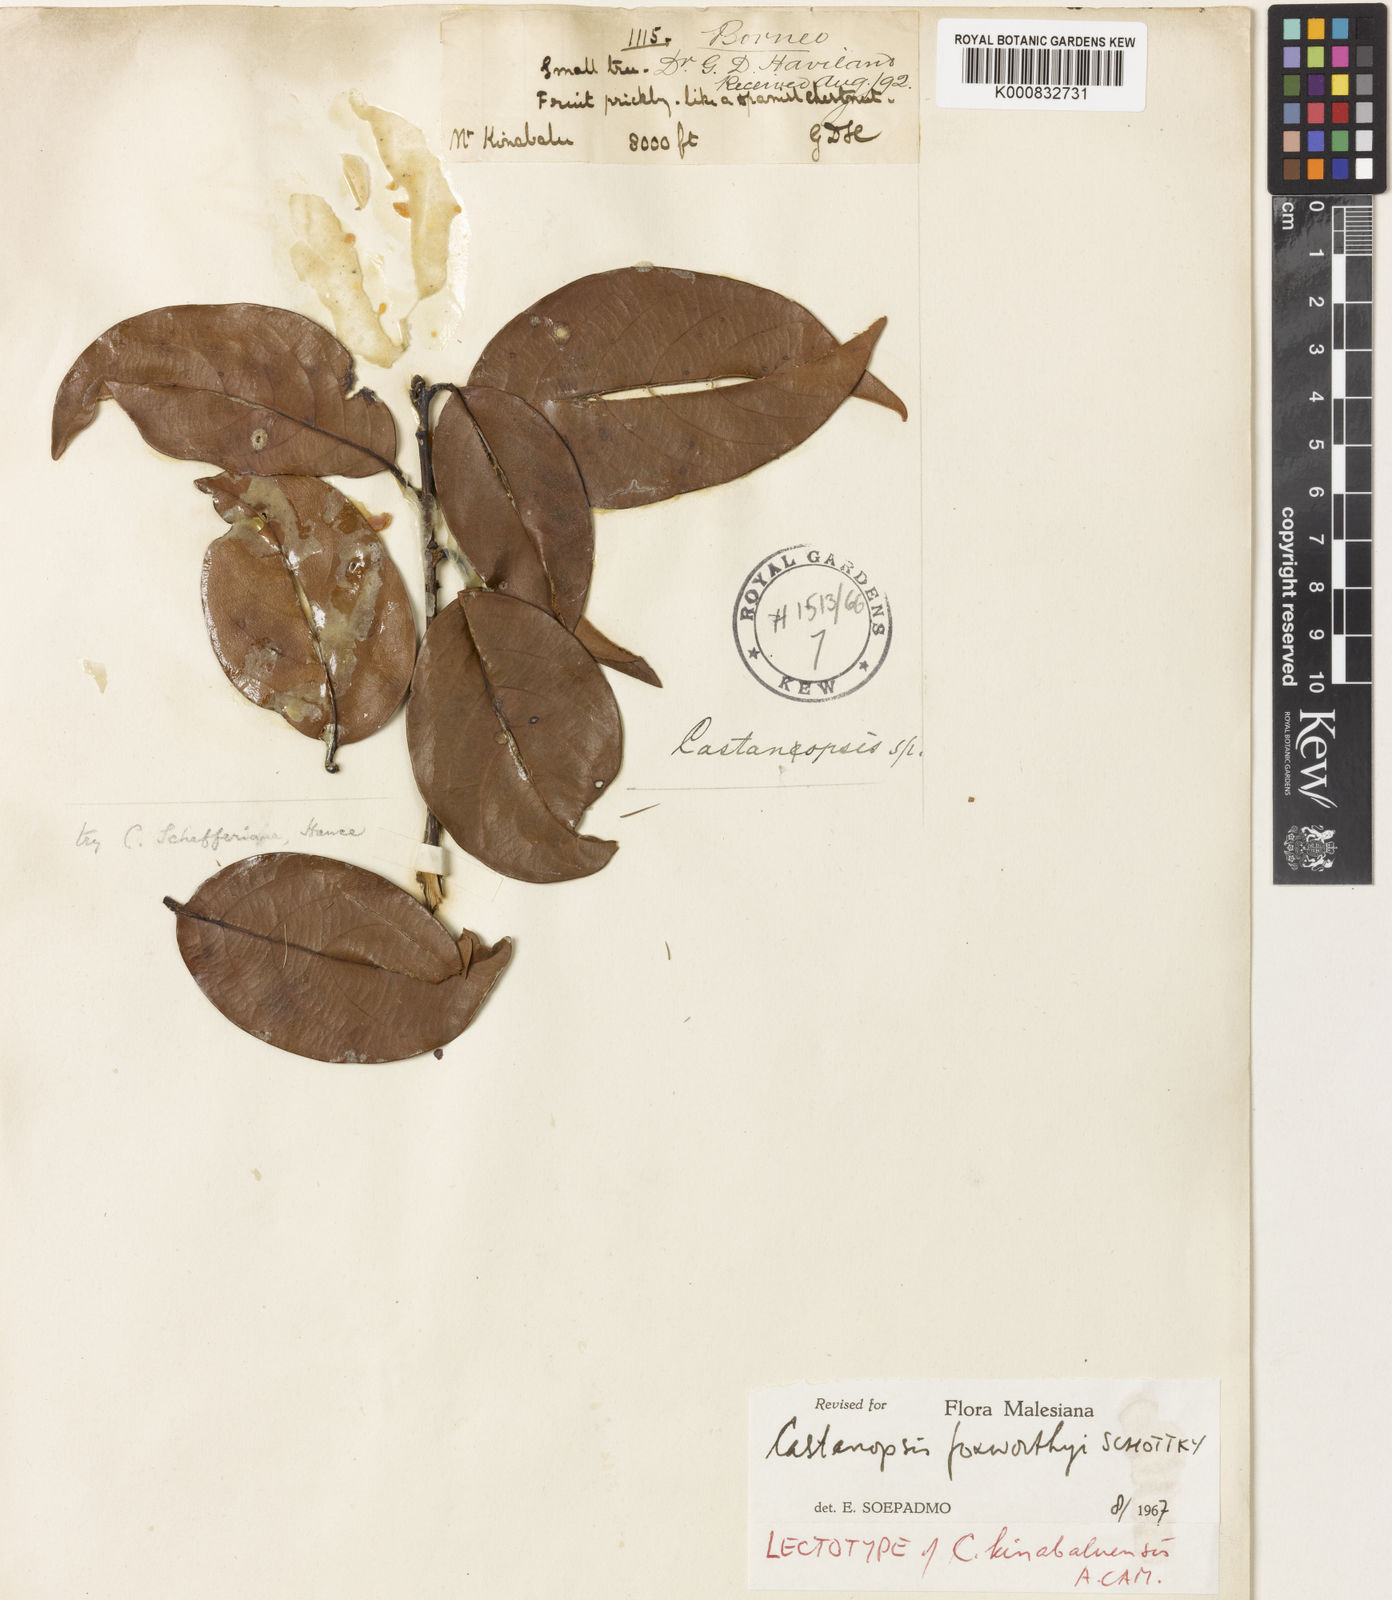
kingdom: Plantae
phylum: Tracheophyta
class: Magnoliopsida
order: Fagales
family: Fagaceae
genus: Castanopsis
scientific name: Castanopsis foxworthyi
